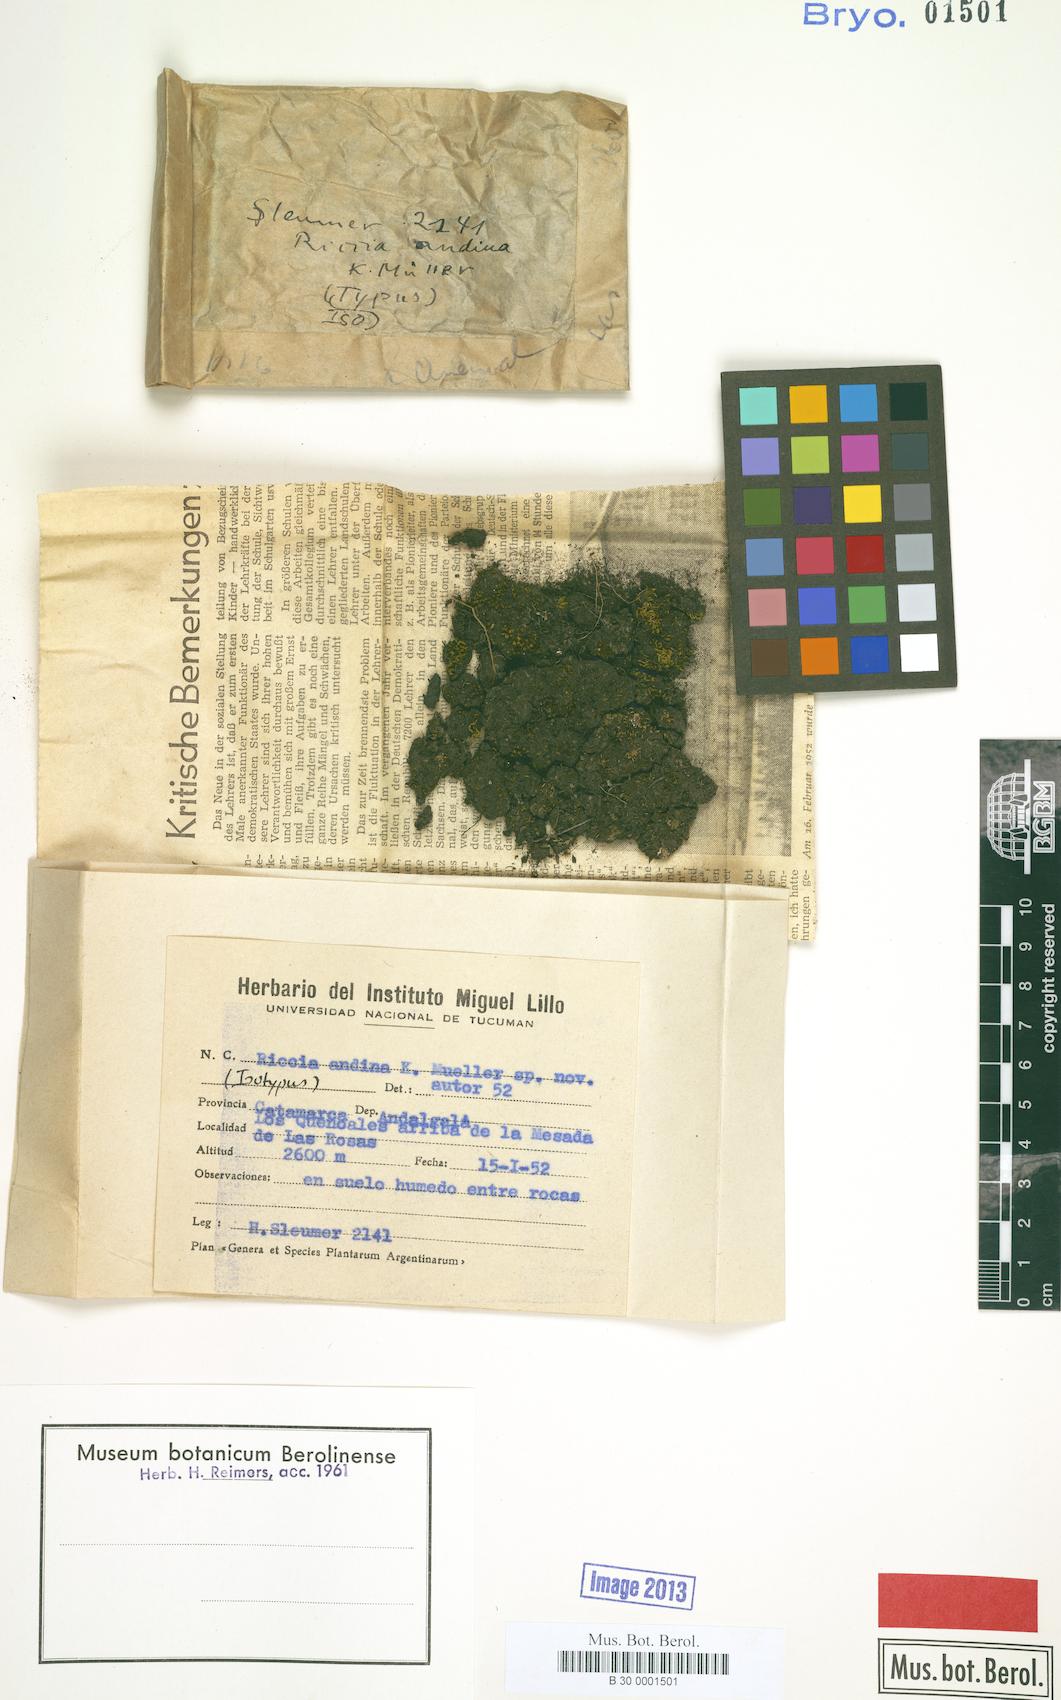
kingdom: Plantae
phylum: Marchantiophyta
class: Marchantiopsida
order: Marchantiales
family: Ricciaceae
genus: Riccia
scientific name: Riccia andina
